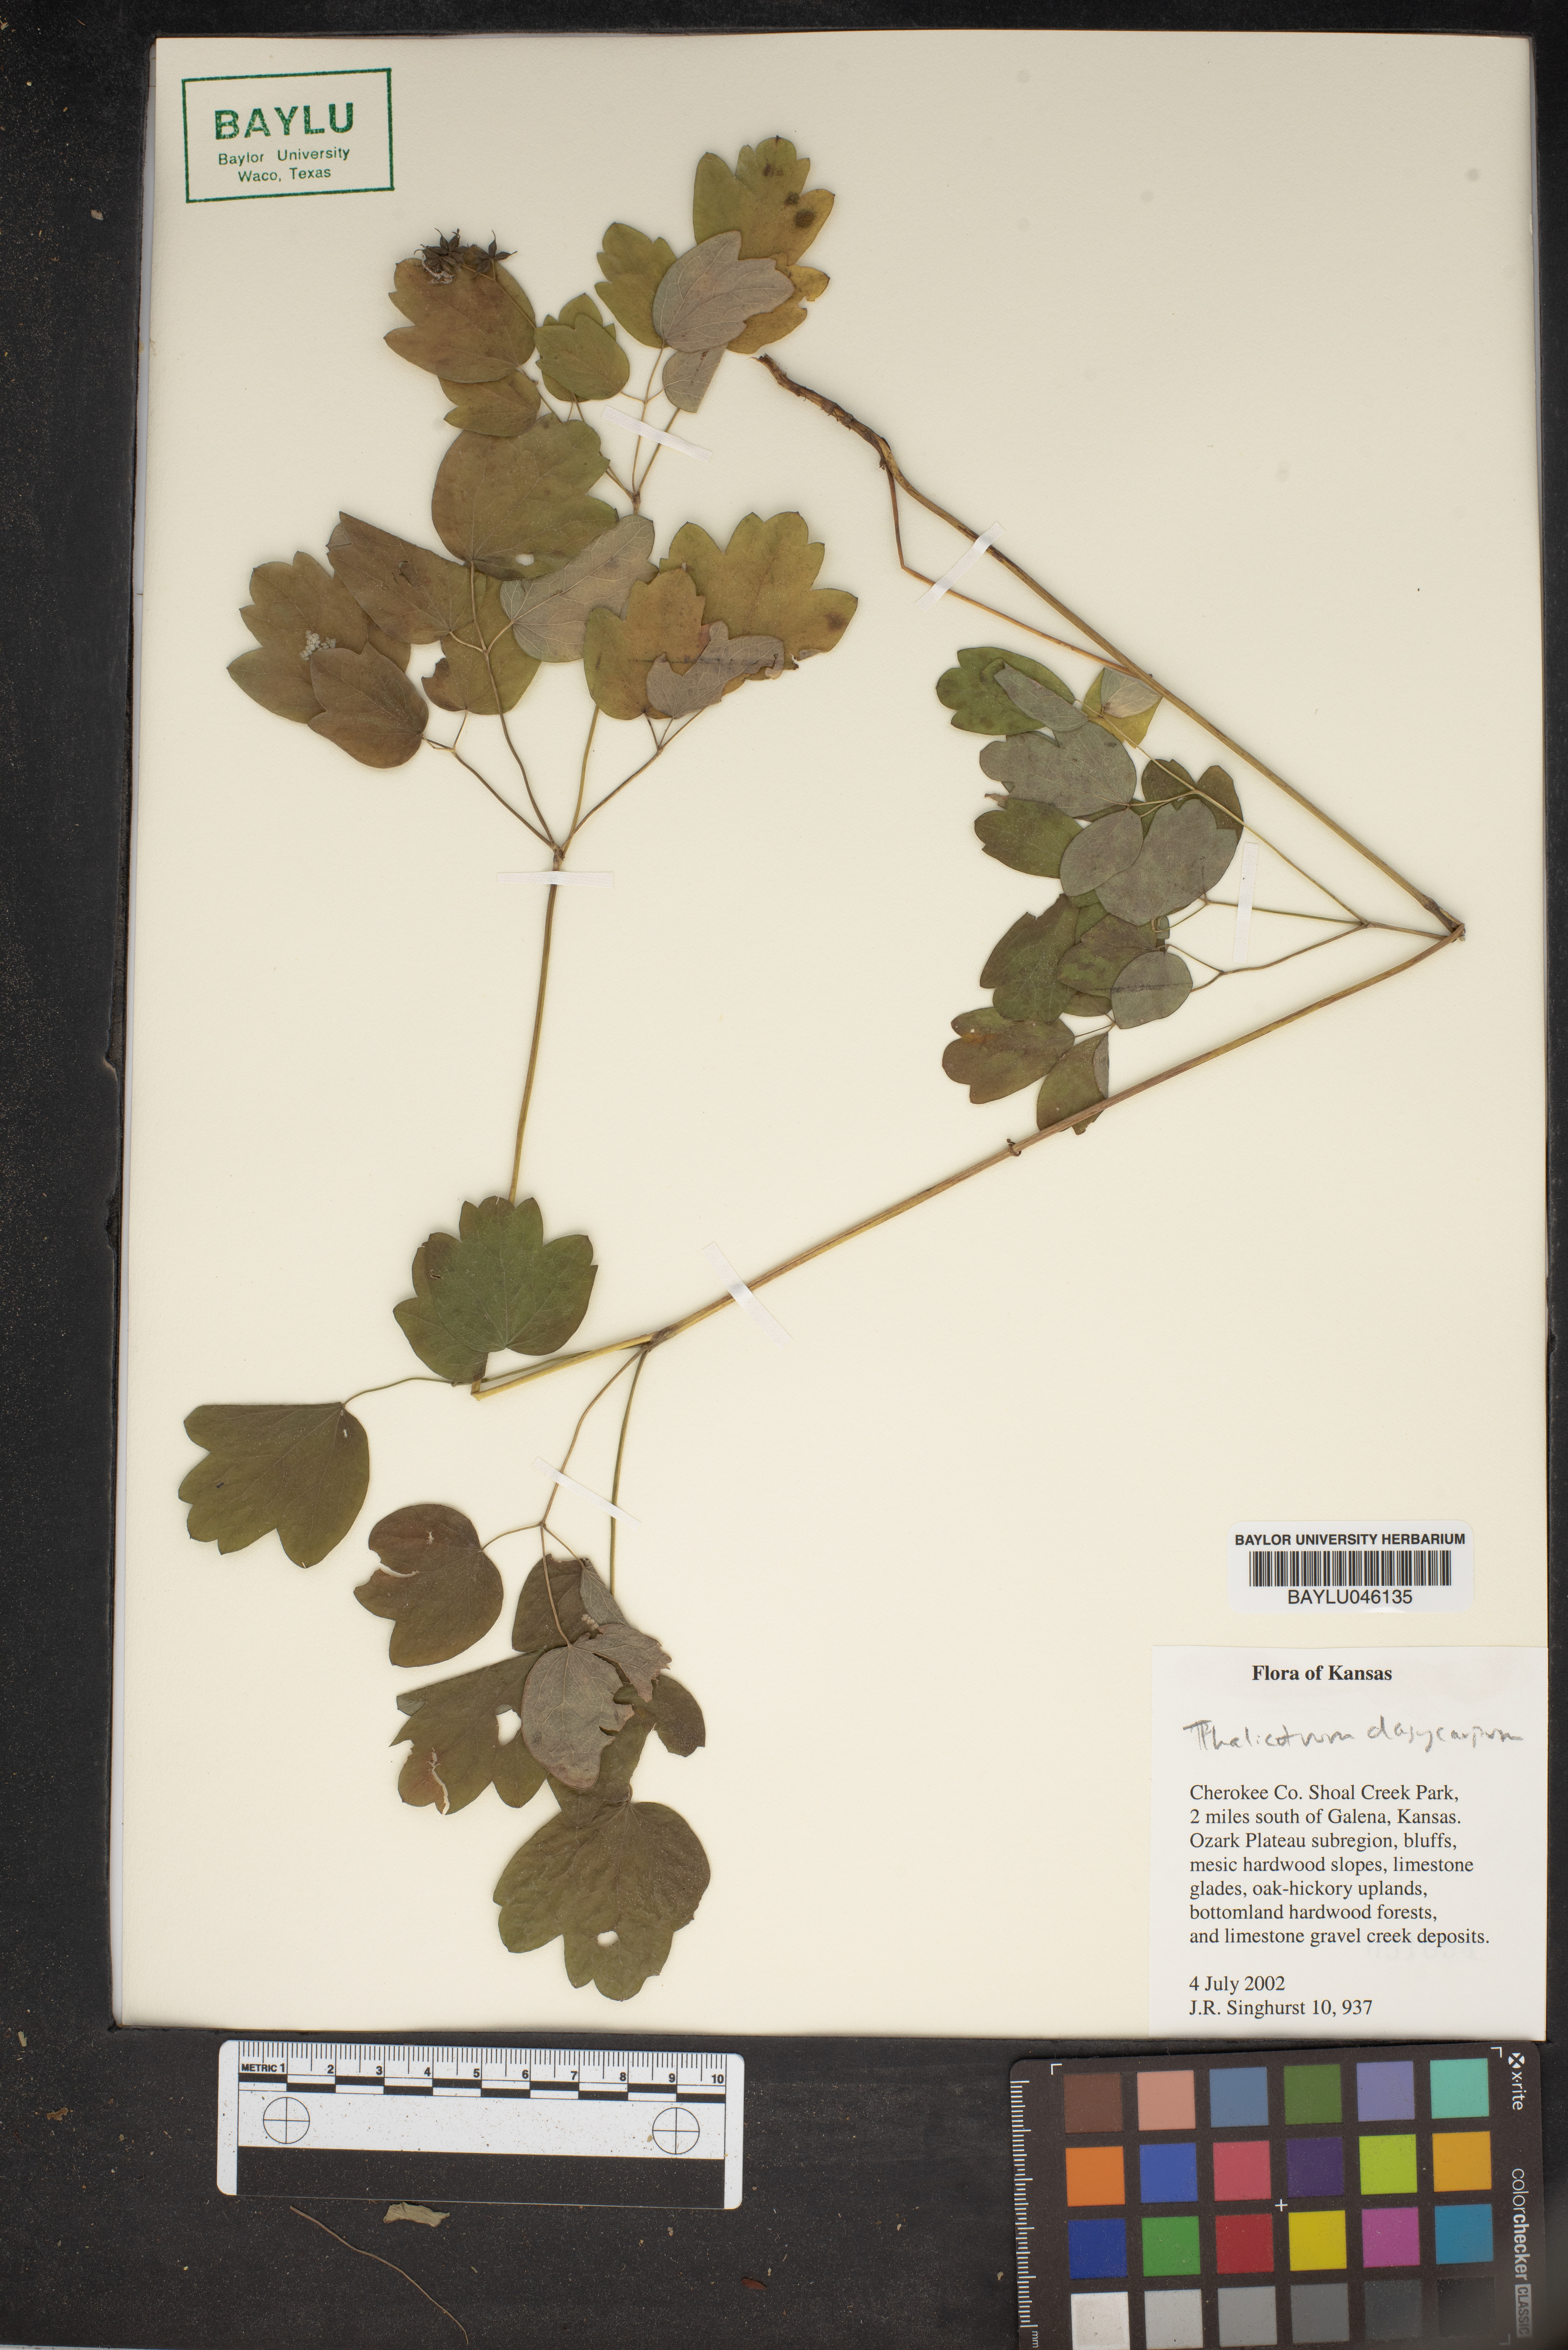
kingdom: Plantae
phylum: Tracheophyta
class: Magnoliopsida
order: Ranunculales
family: Ranunculaceae
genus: Thalictrum
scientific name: Thalictrum dasycarpum
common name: Purple meadow-rue
